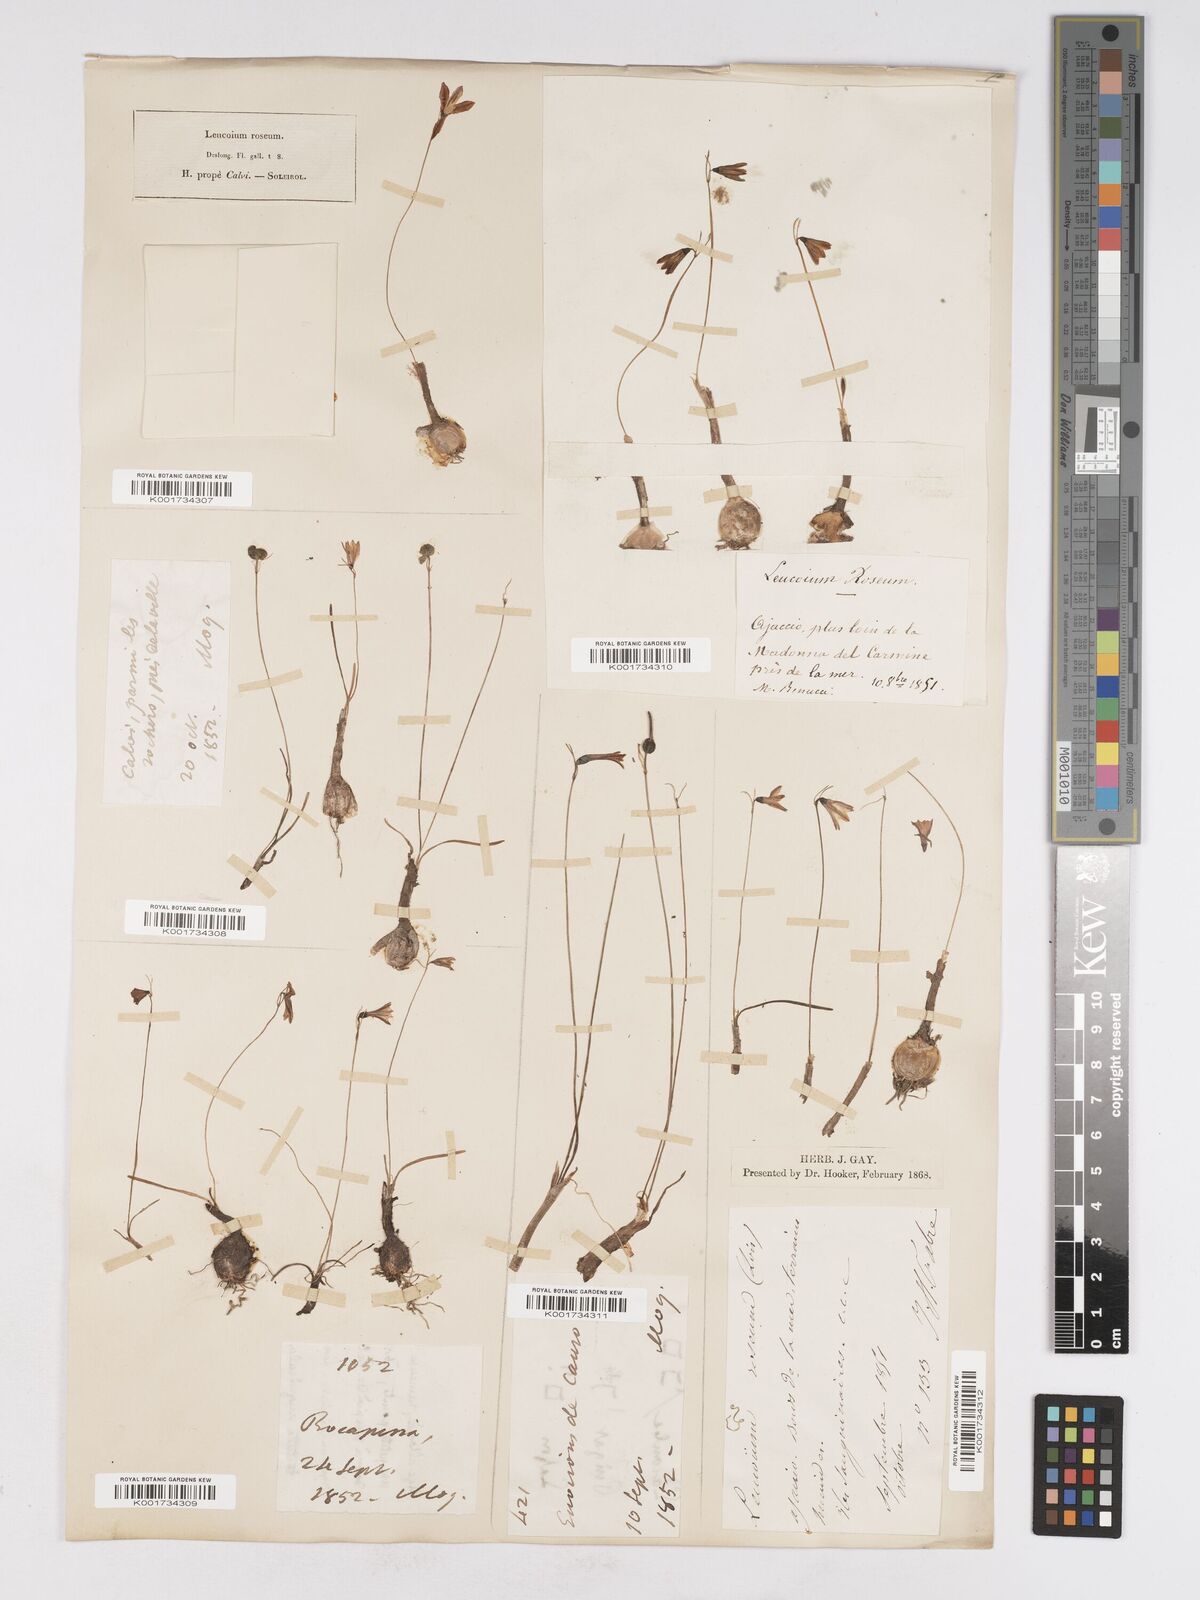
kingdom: Plantae
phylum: Tracheophyta
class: Liliopsida
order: Asparagales
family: Amaryllidaceae
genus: Acis
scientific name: Acis rosea
